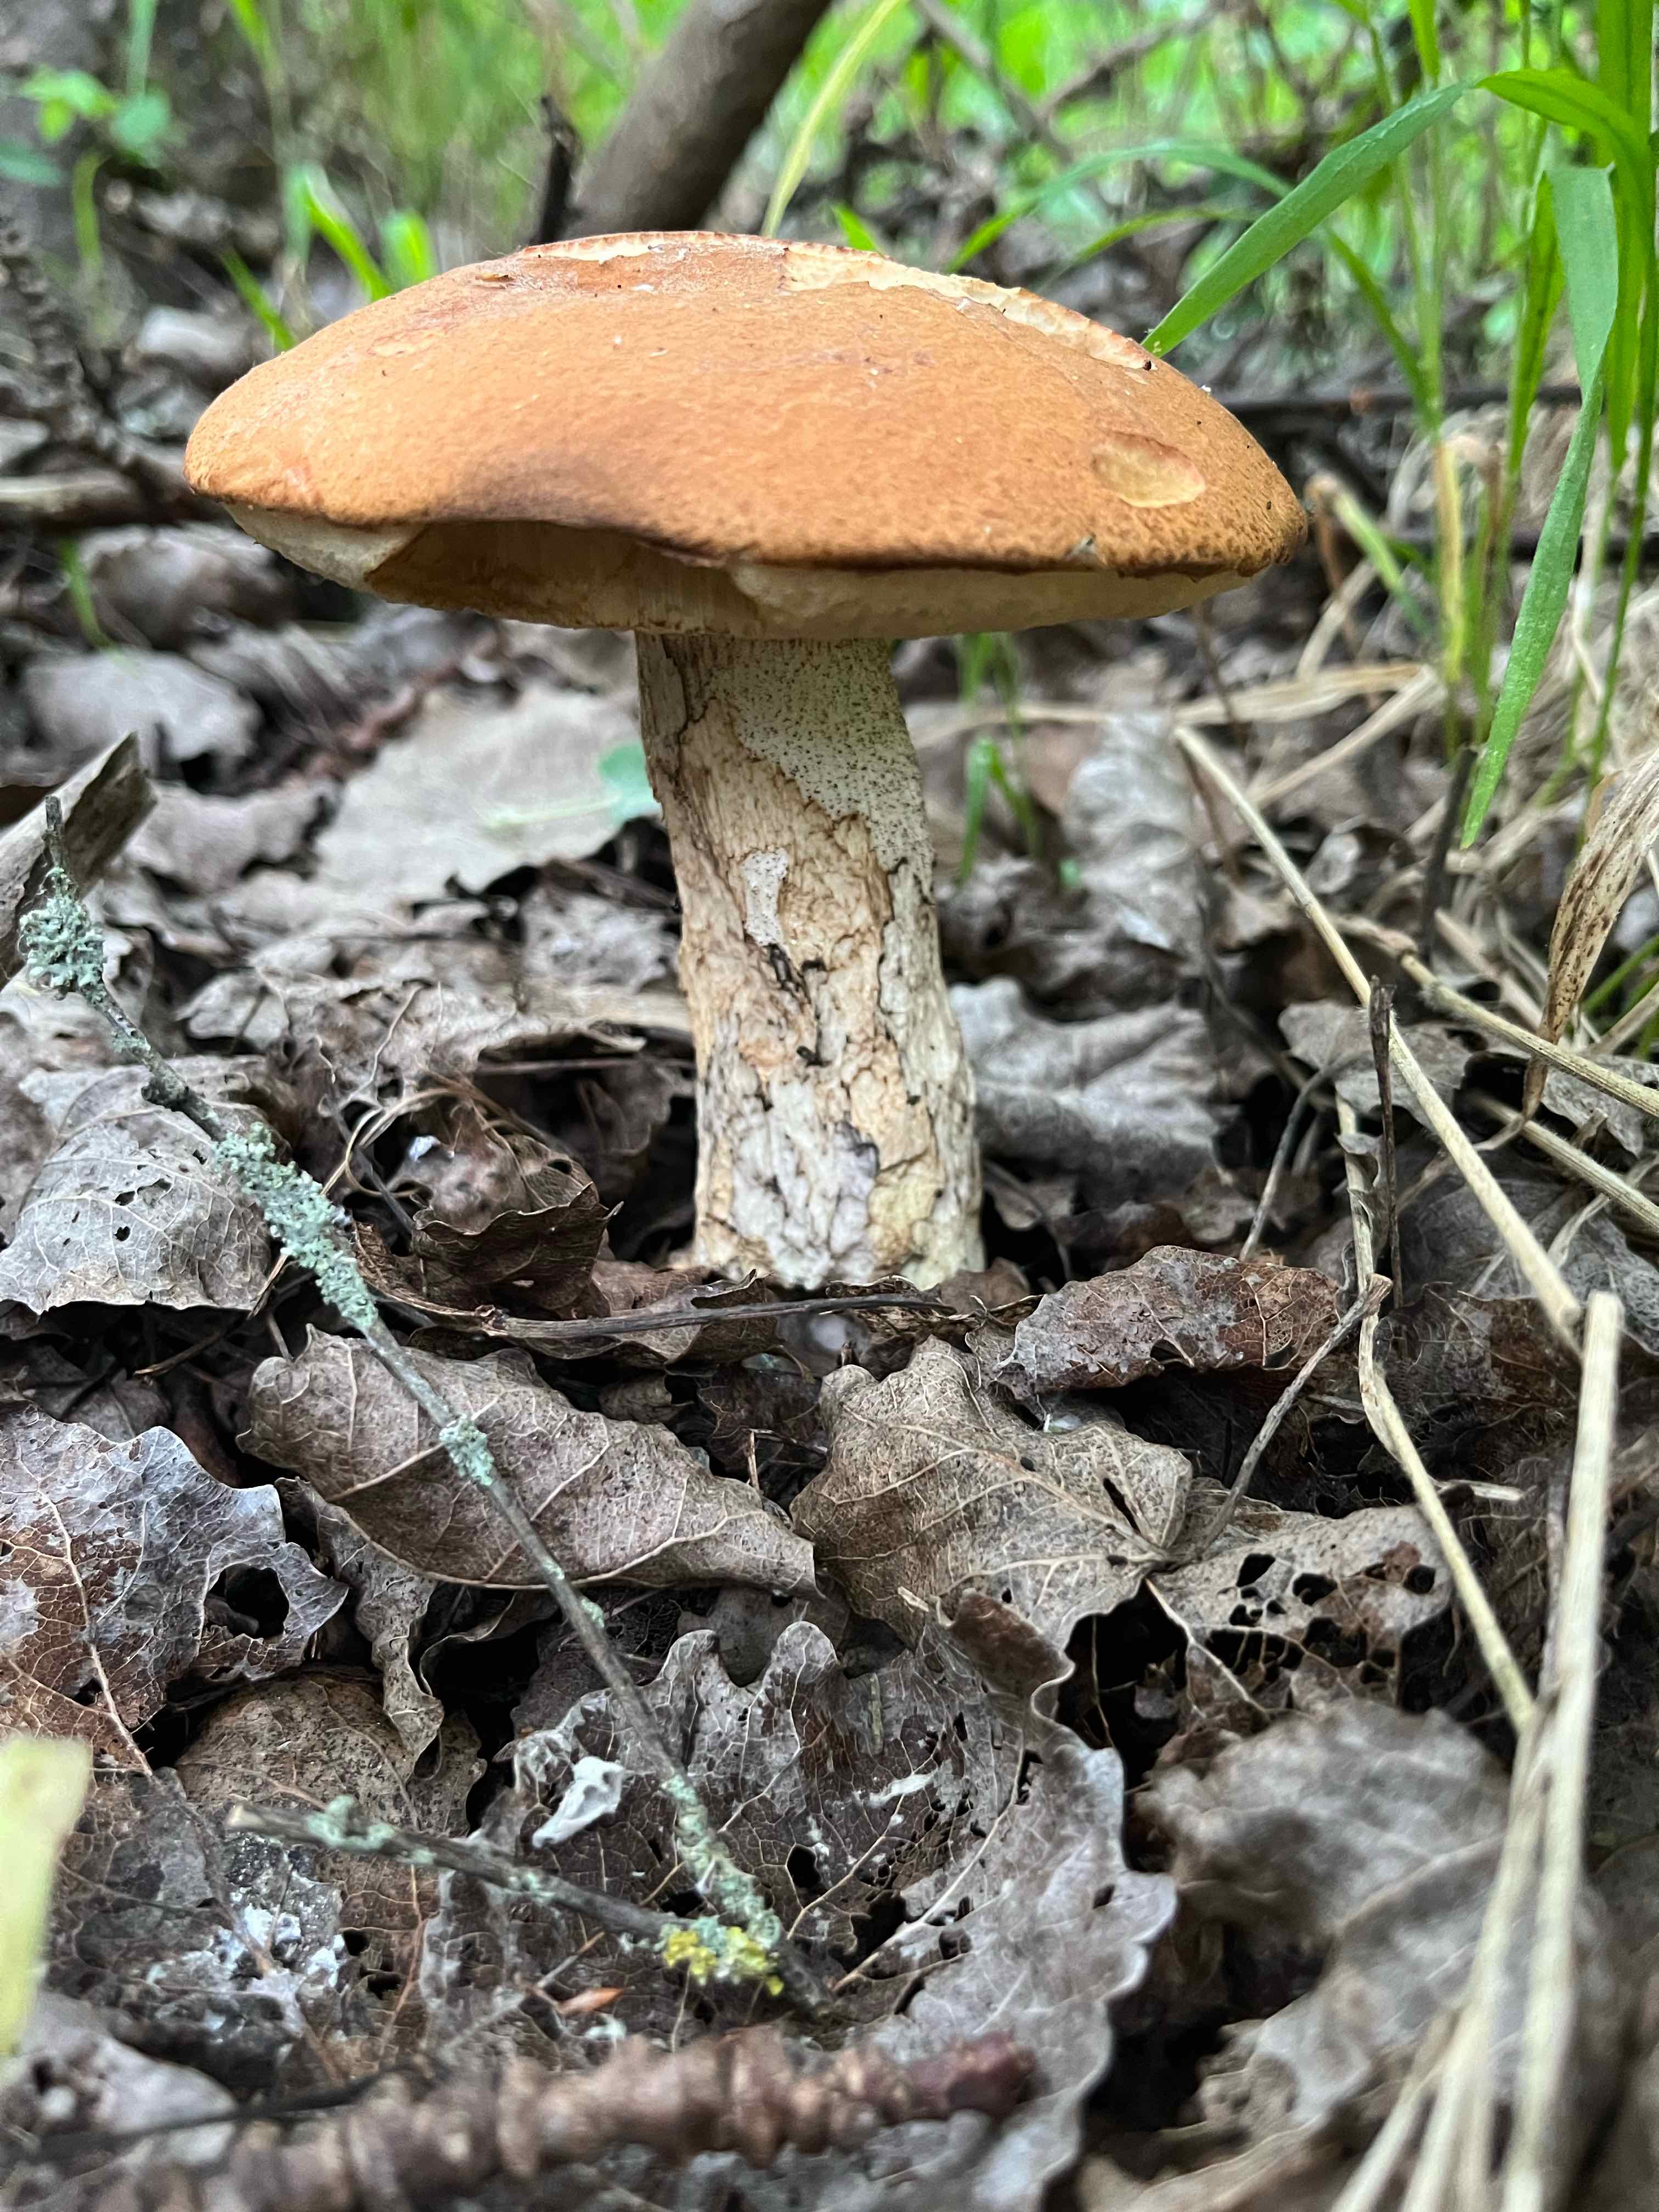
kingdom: Fungi
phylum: Basidiomycota
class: Agaricomycetes
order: Boletales
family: Boletaceae
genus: Leccinum
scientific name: Leccinum albostipitatum
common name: aspe-skælrørhat
